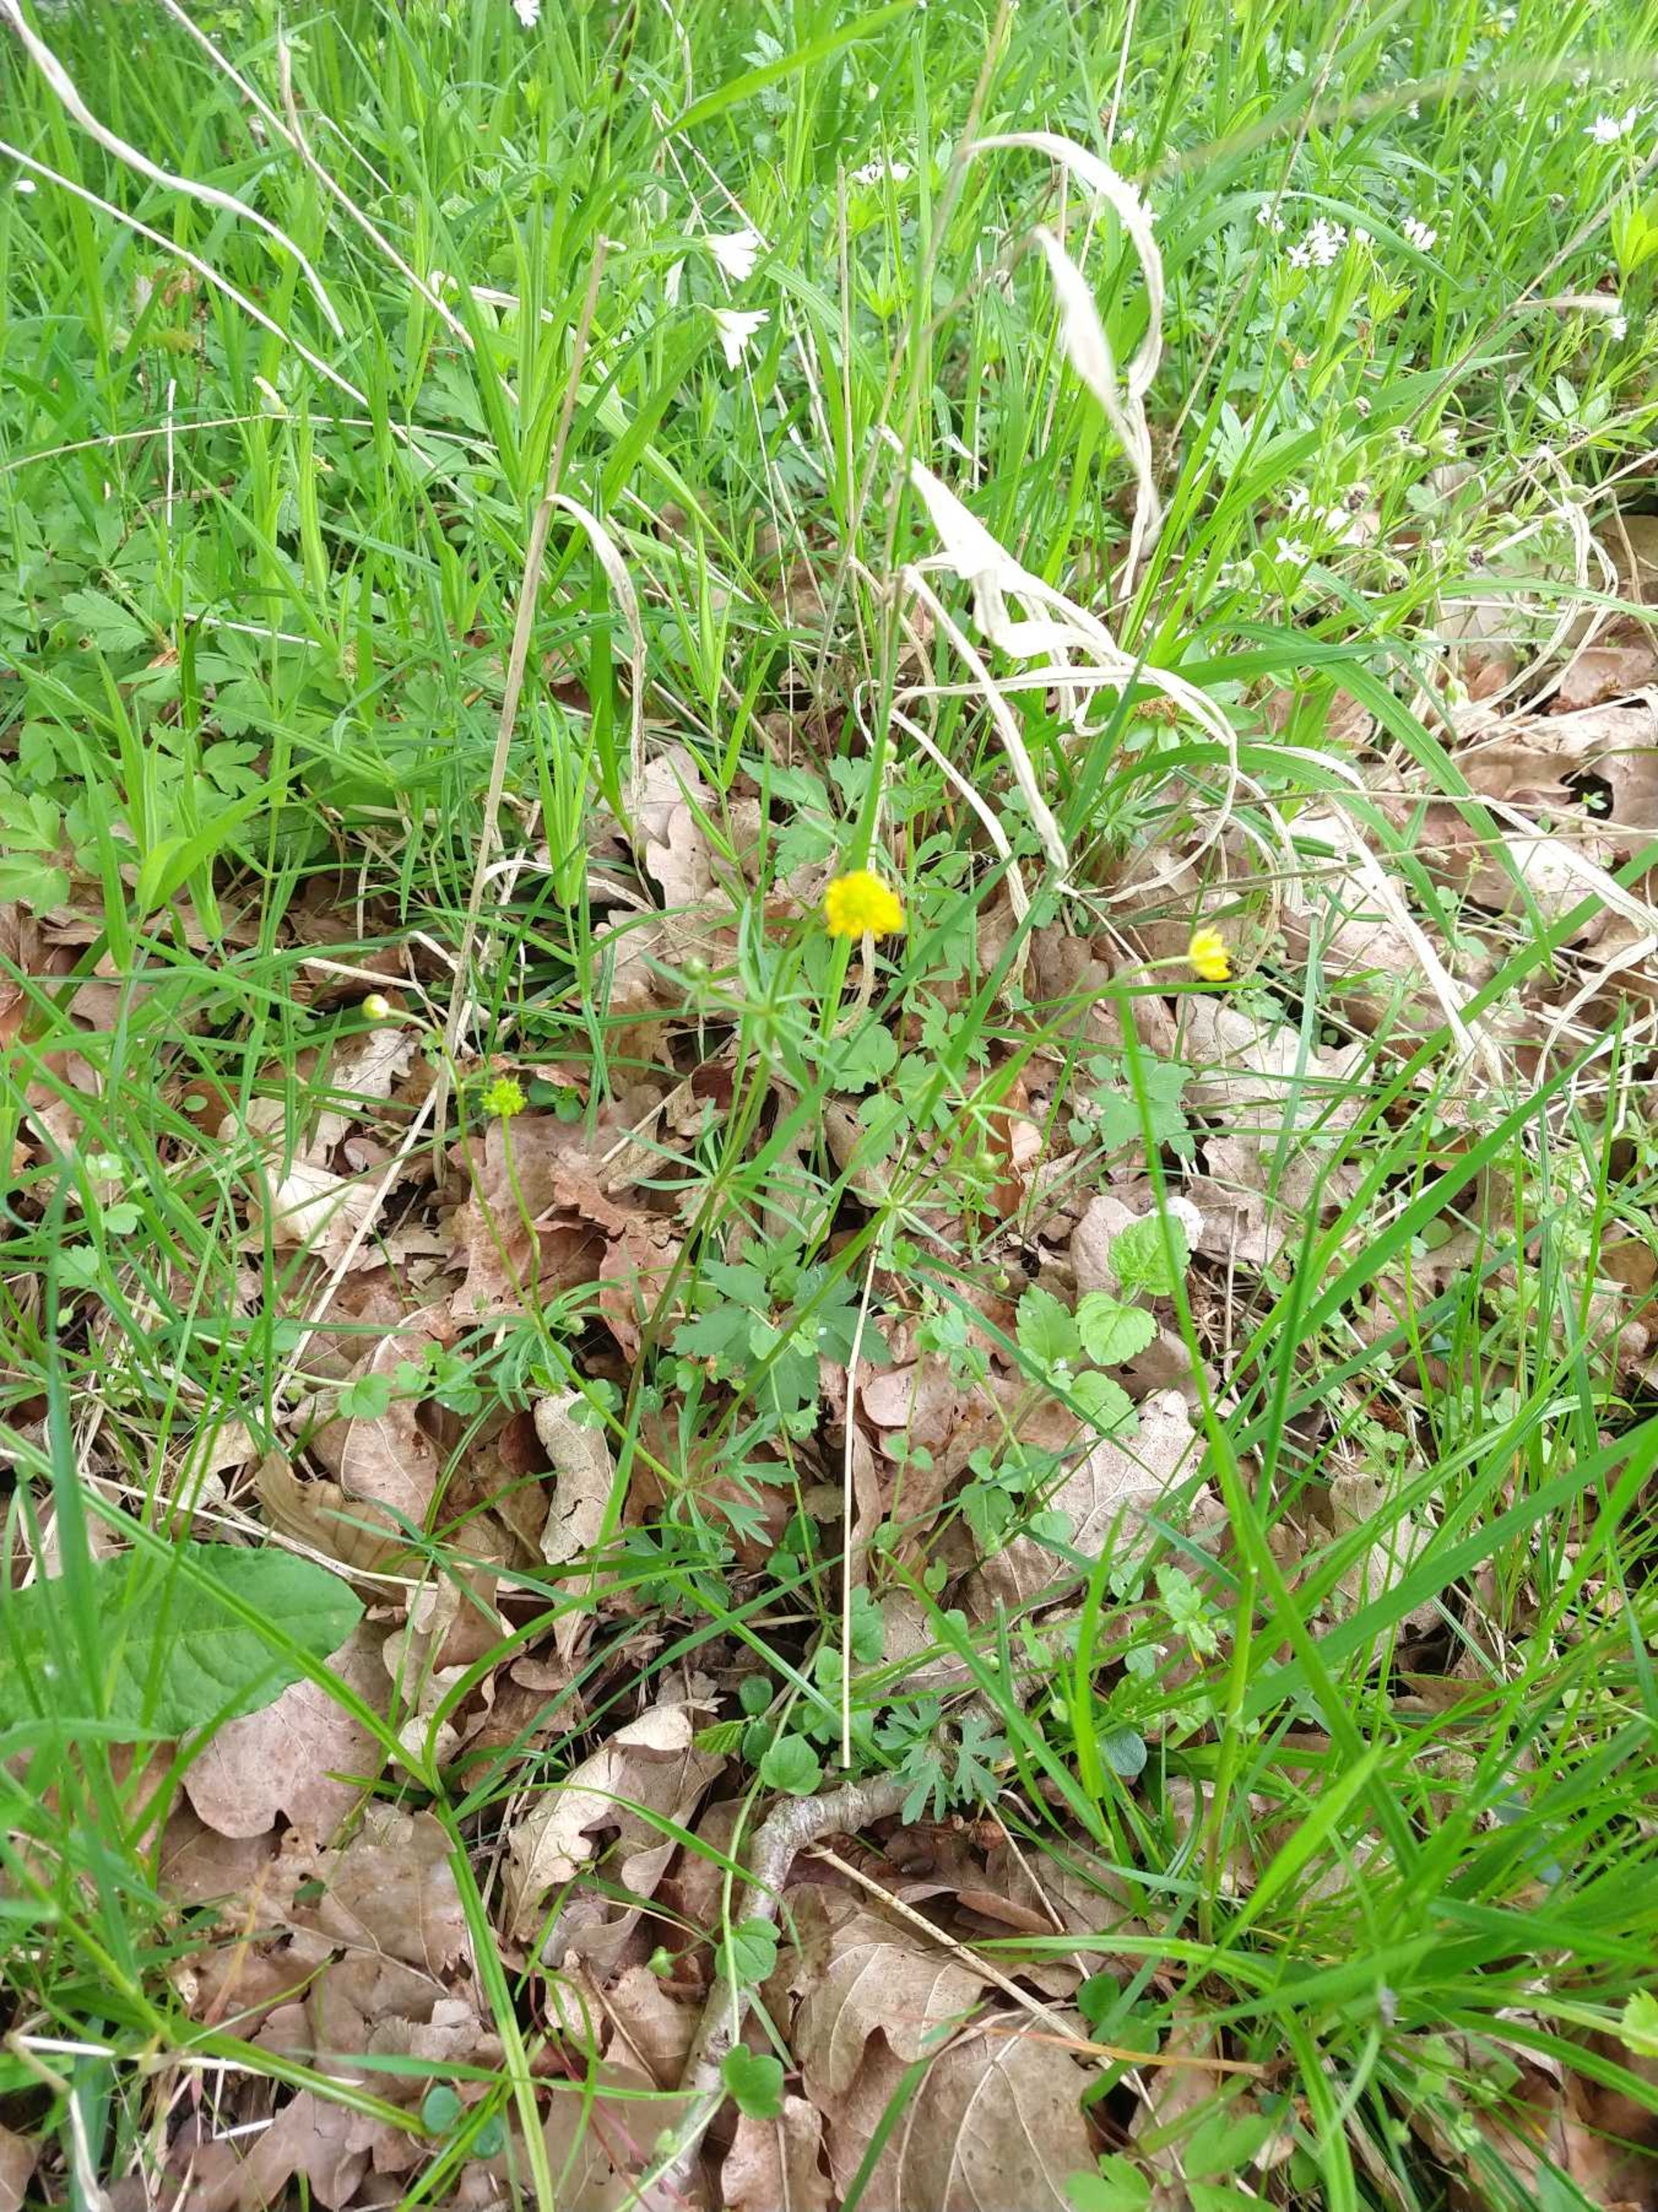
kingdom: Plantae
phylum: Tracheophyta
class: Magnoliopsida
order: Ranunculales
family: Ranunculaceae
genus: Ranunculus
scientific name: Ranunculus auricomus
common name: Nyrebladet ranunkel
